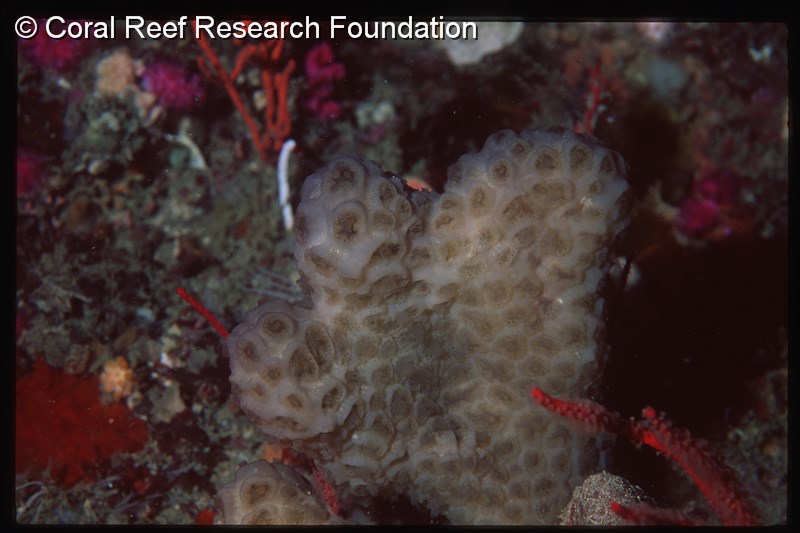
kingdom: Animalia
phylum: Chordata
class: Ascidiacea
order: Aplousobranchia
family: Polyclinidae
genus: Aplidium
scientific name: Aplidium
